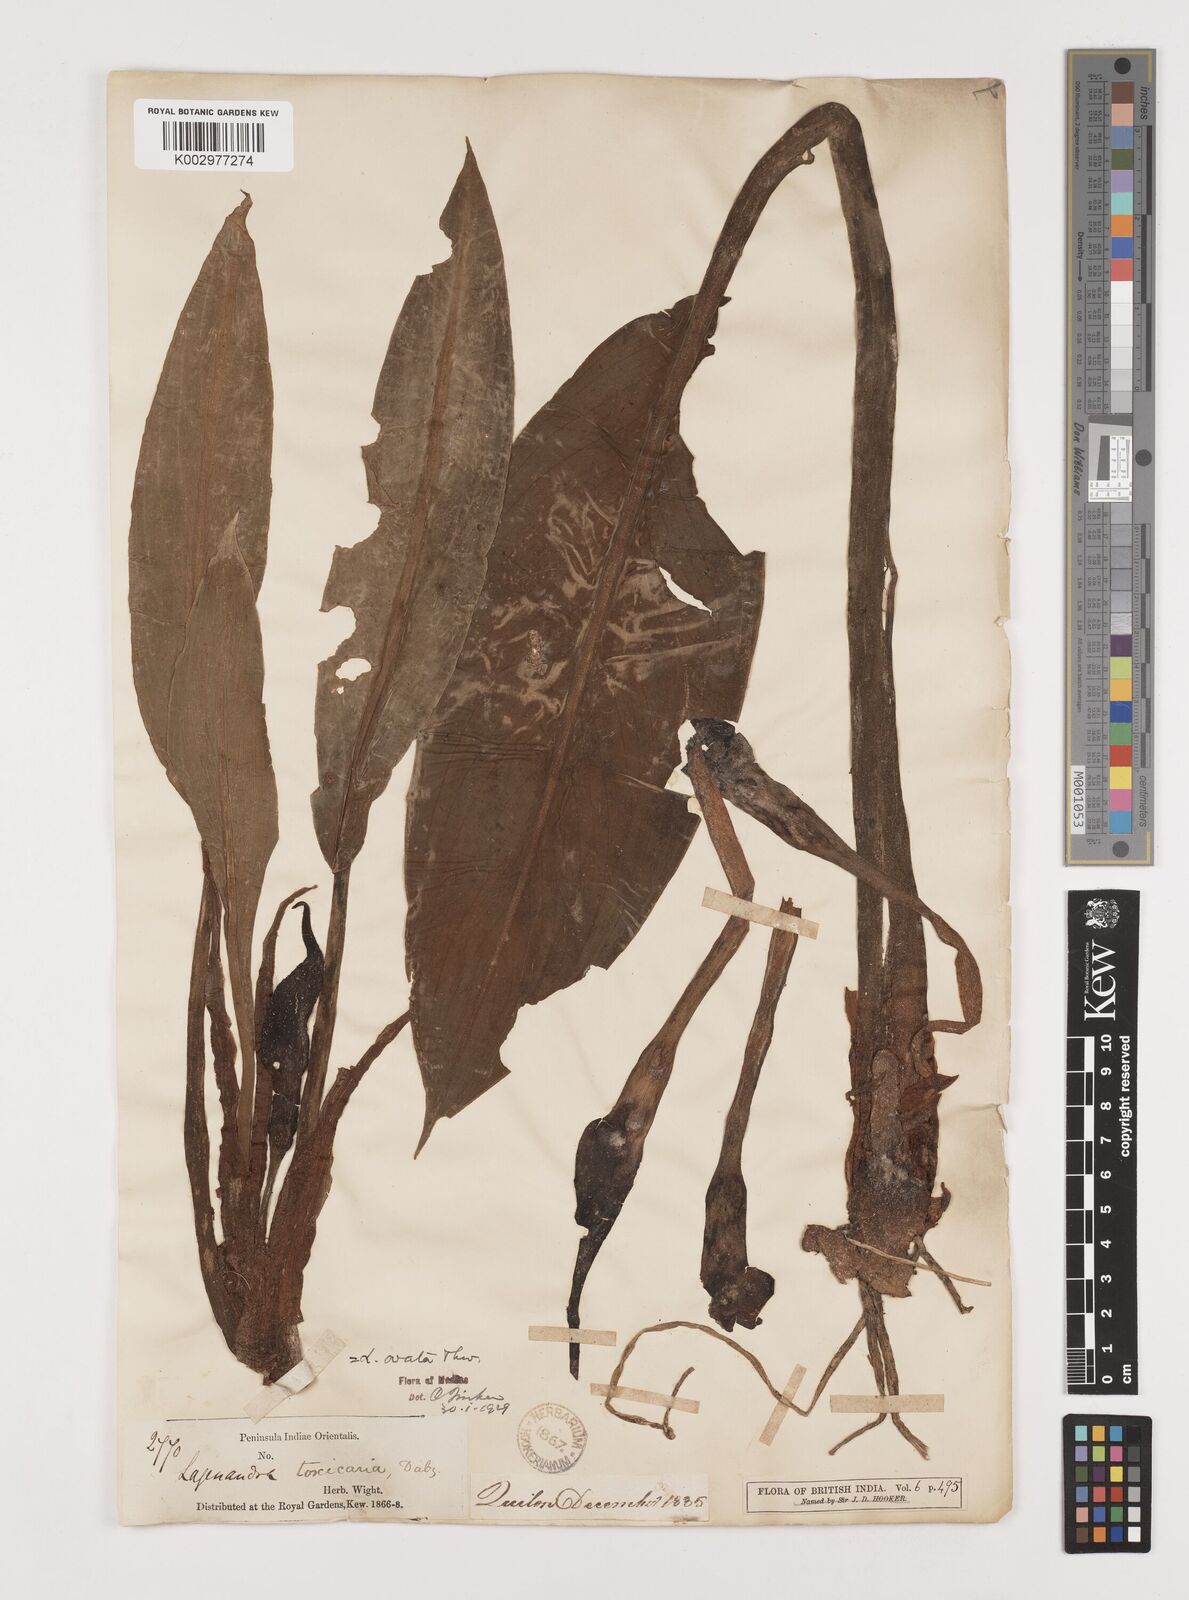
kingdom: Plantae
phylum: Tracheophyta
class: Liliopsida
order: Alismatales
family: Araceae
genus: Lagenandra
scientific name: Lagenandra ovata
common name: Malayan sword
